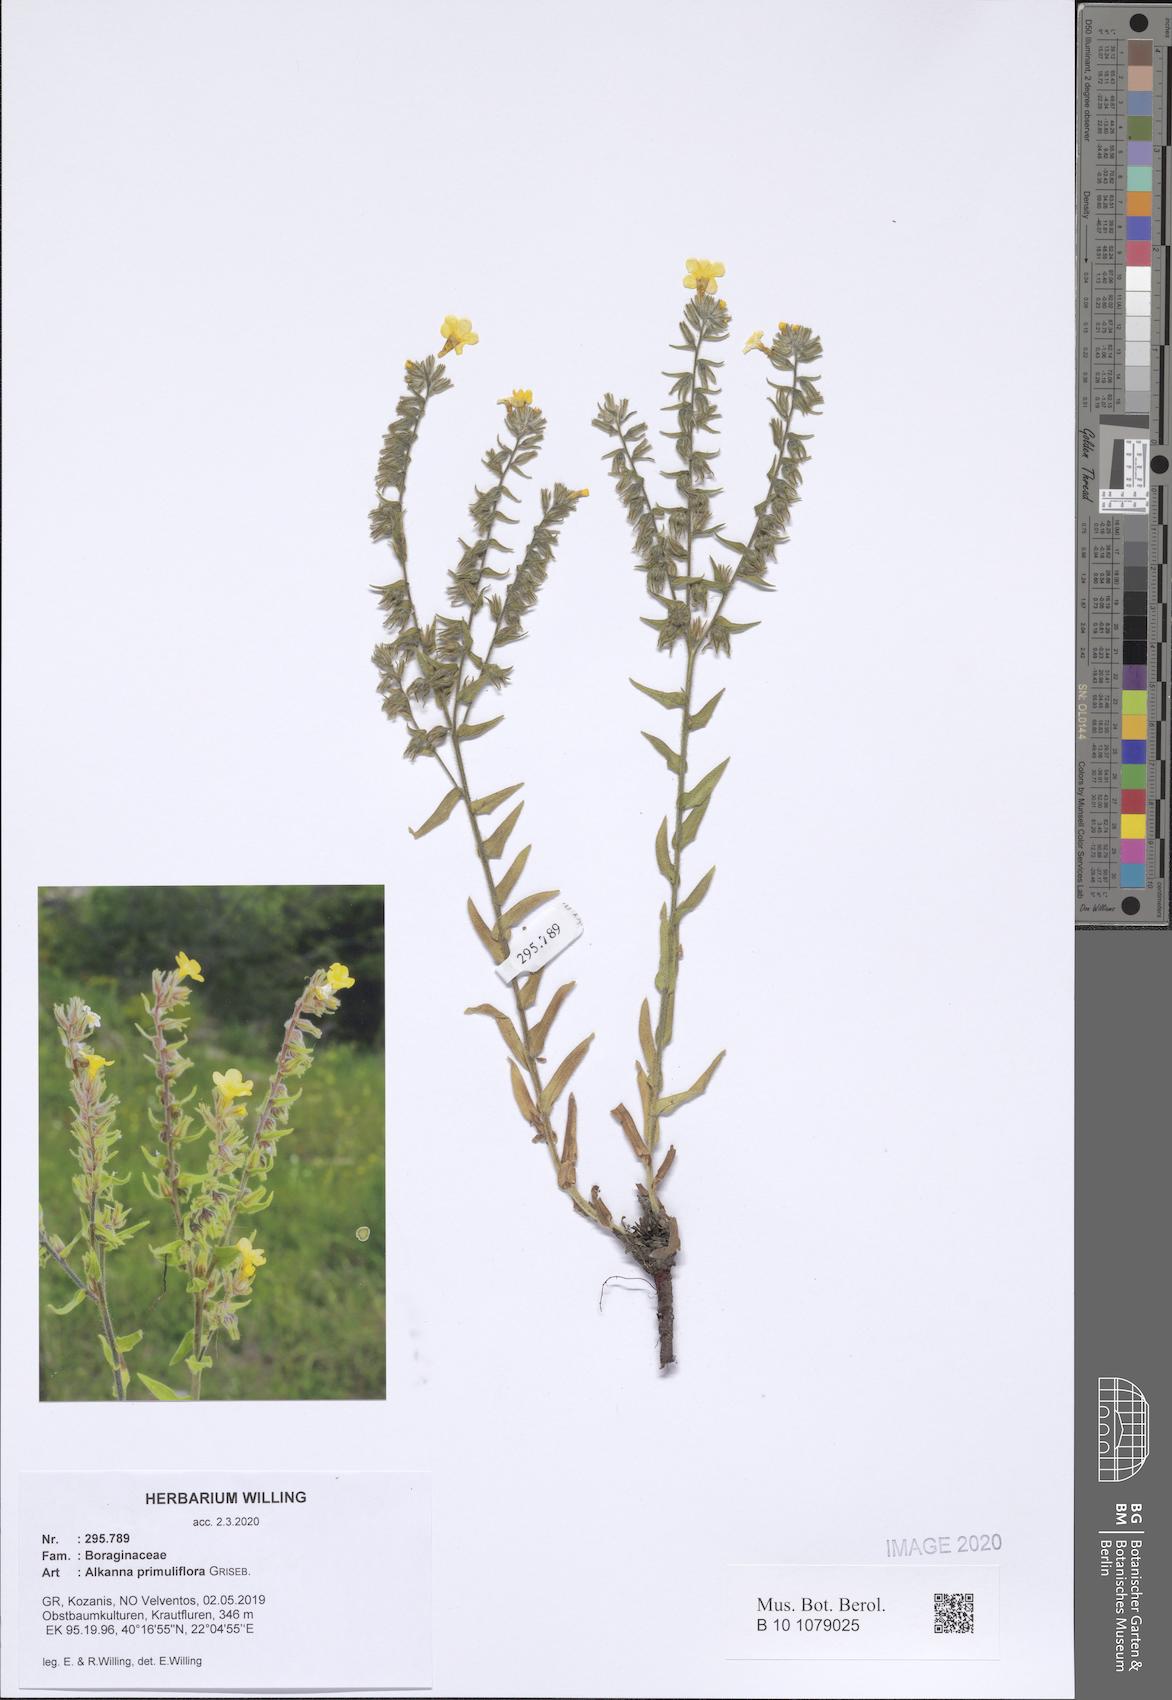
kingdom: Plantae
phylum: Tracheophyta
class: Magnoliopsida
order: Boraginales
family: Boraginaceae
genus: Alkanna
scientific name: Alkanna primuliflora
